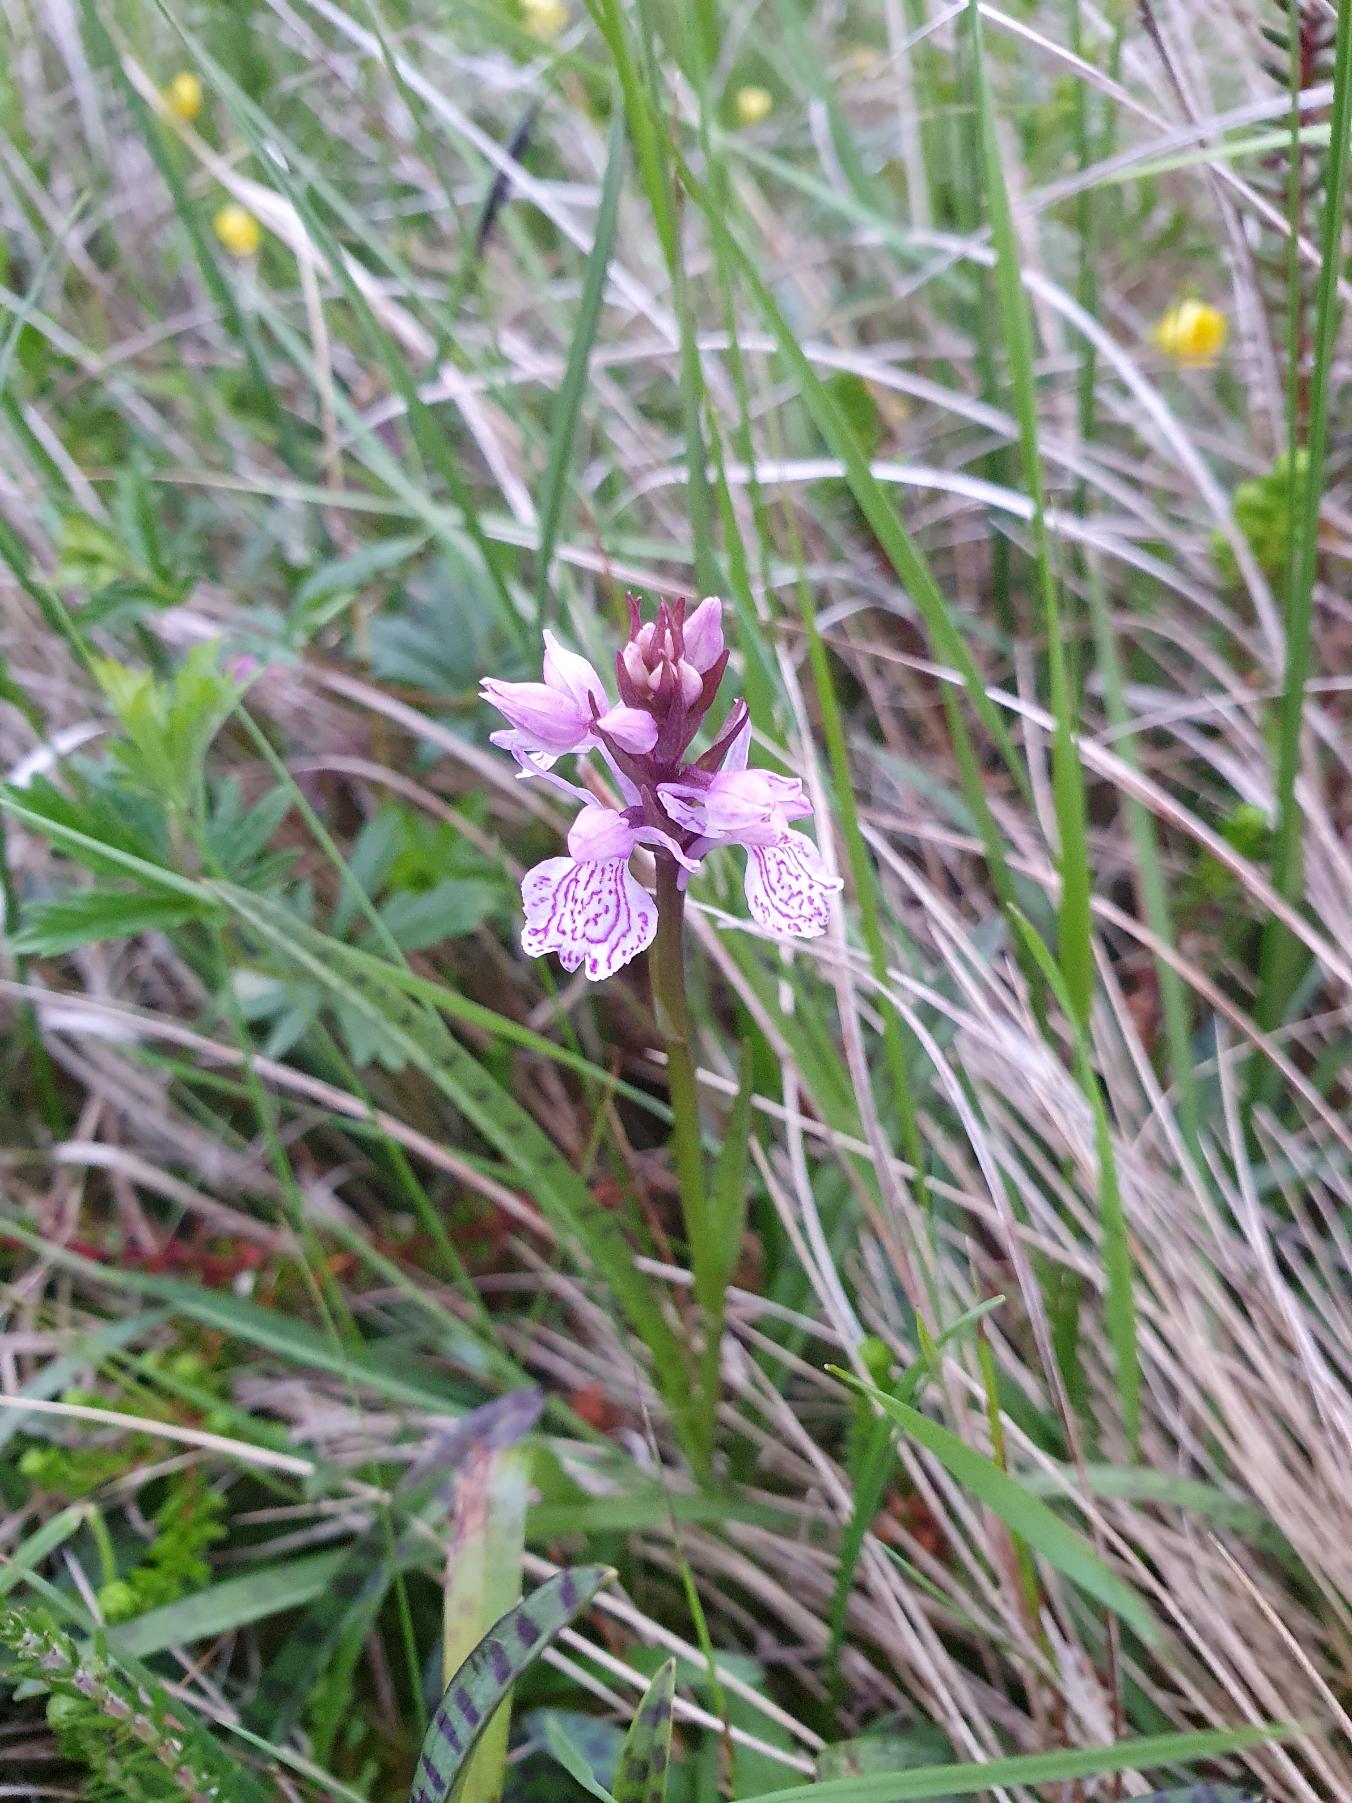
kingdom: Plantae
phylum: Tracheophyta
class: Liliopsida
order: Asparagales
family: Orchidaceae
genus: Dactylorhiza
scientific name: Dactylorhiza maculata
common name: Plettet gøgeurt
